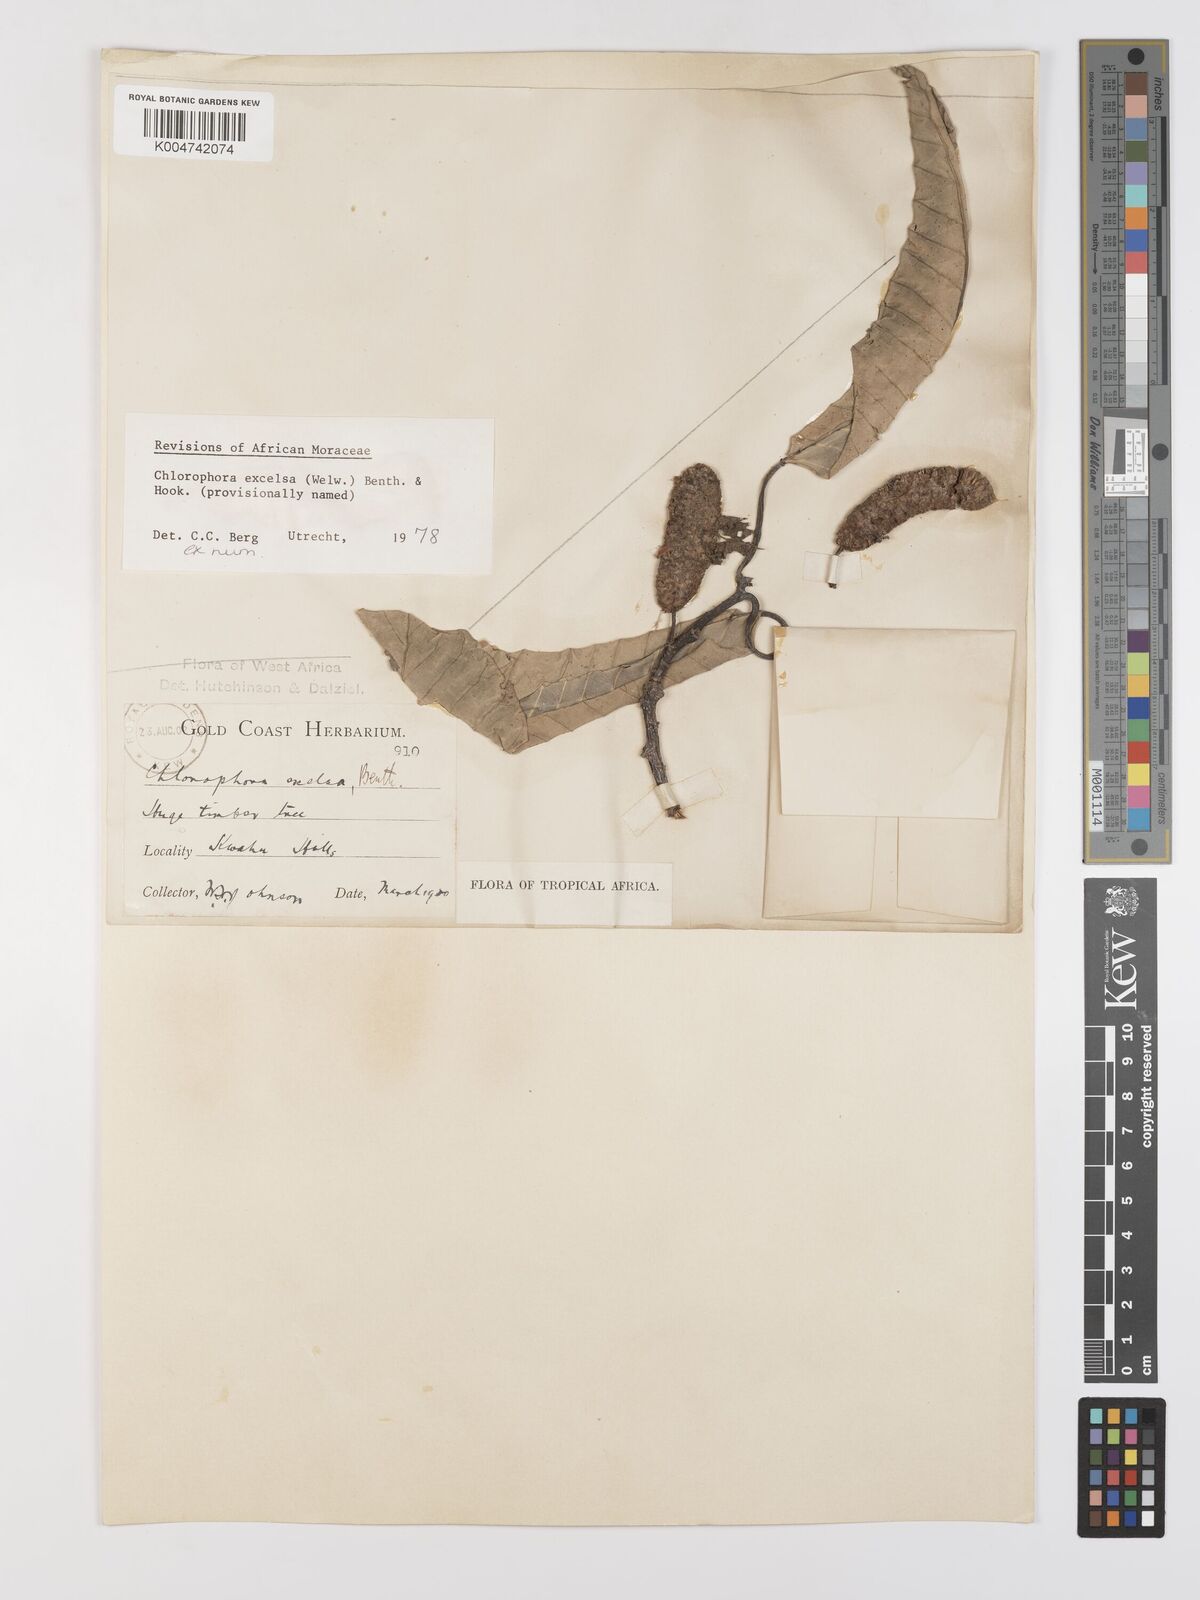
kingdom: Plantae
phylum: Tracheophyta
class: Magnoliopsida
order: Rosales
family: Moraceae
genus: Milicia
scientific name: Milicia excelsa
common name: African teak
